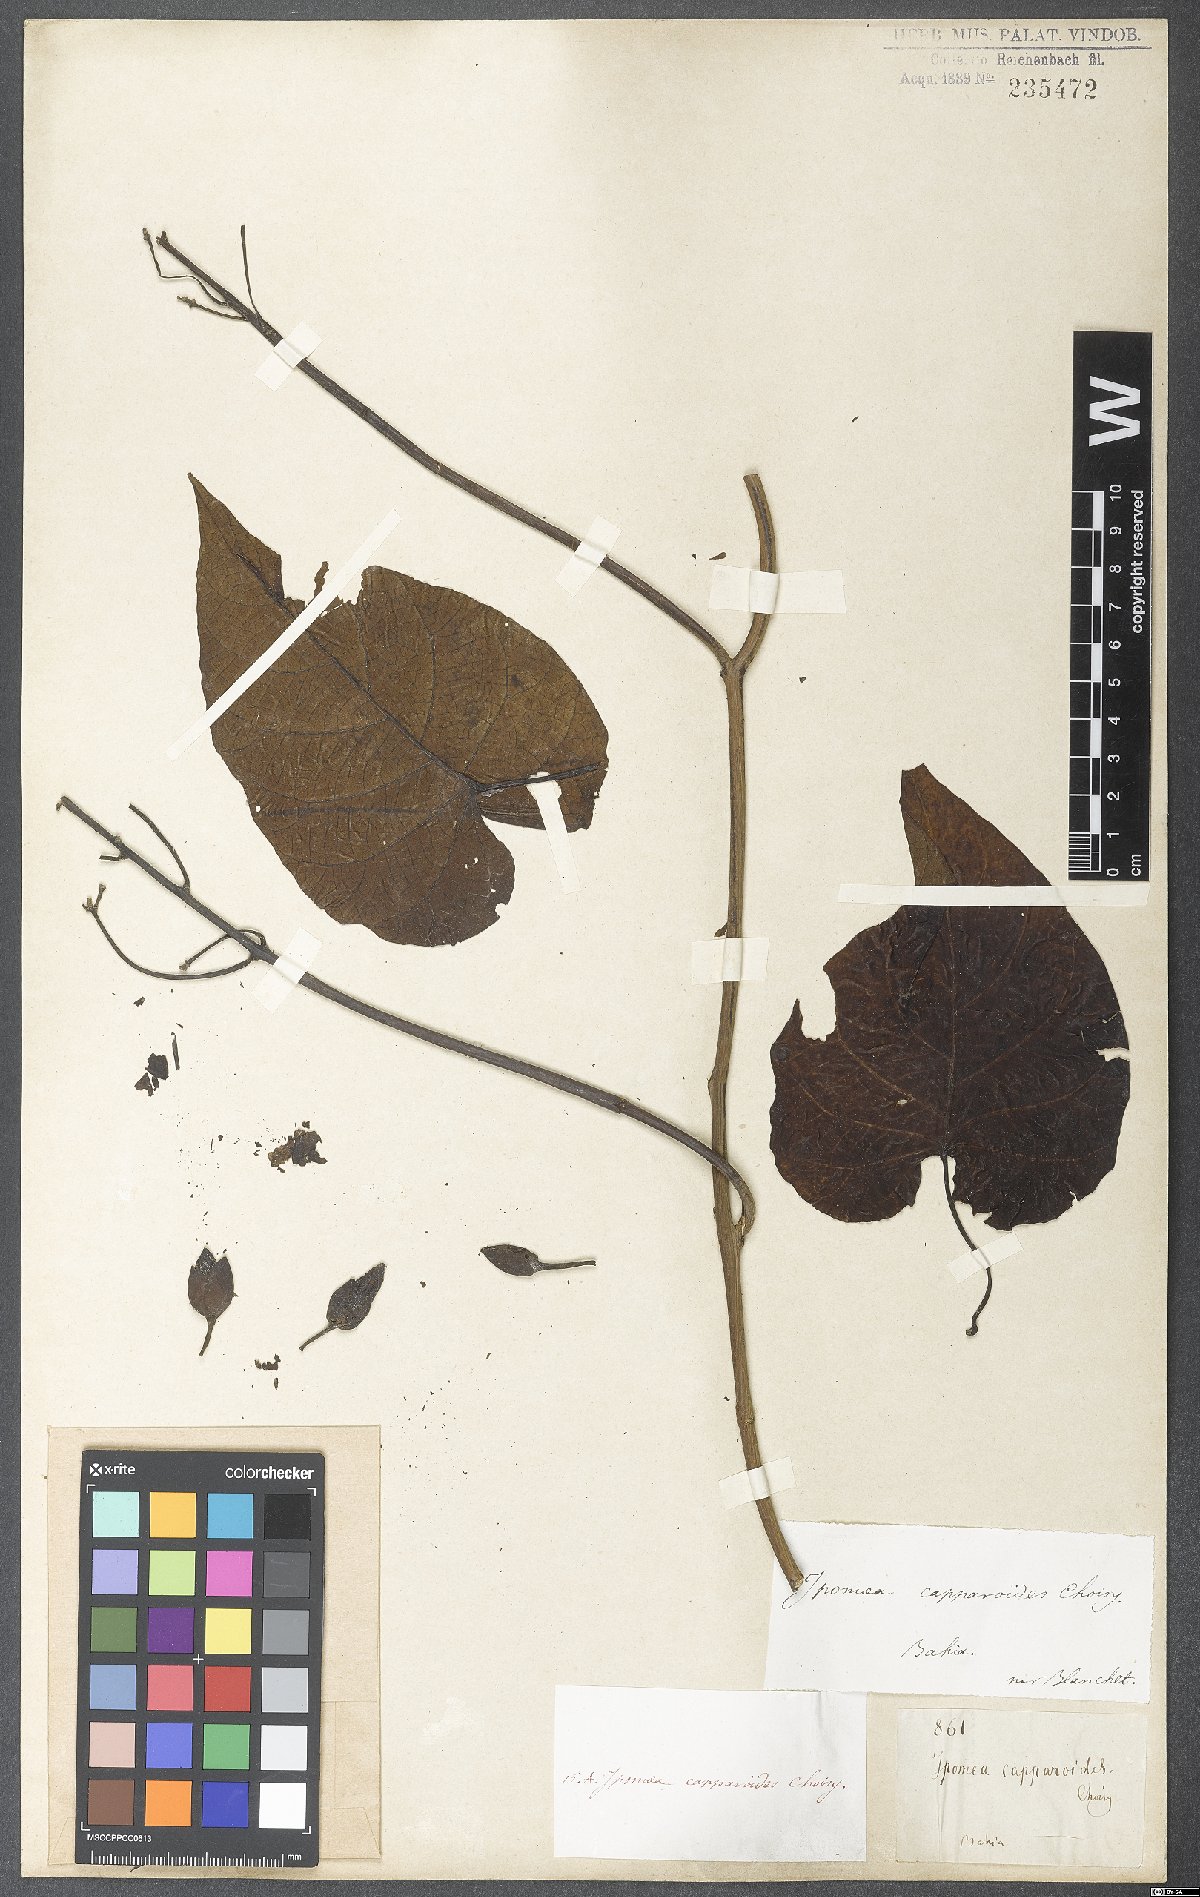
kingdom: Plantae
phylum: Tracheophyta
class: Magnoliopsida
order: Solanales
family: Convolvulaceae
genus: Ipomoea
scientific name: Ipomoea philomega
